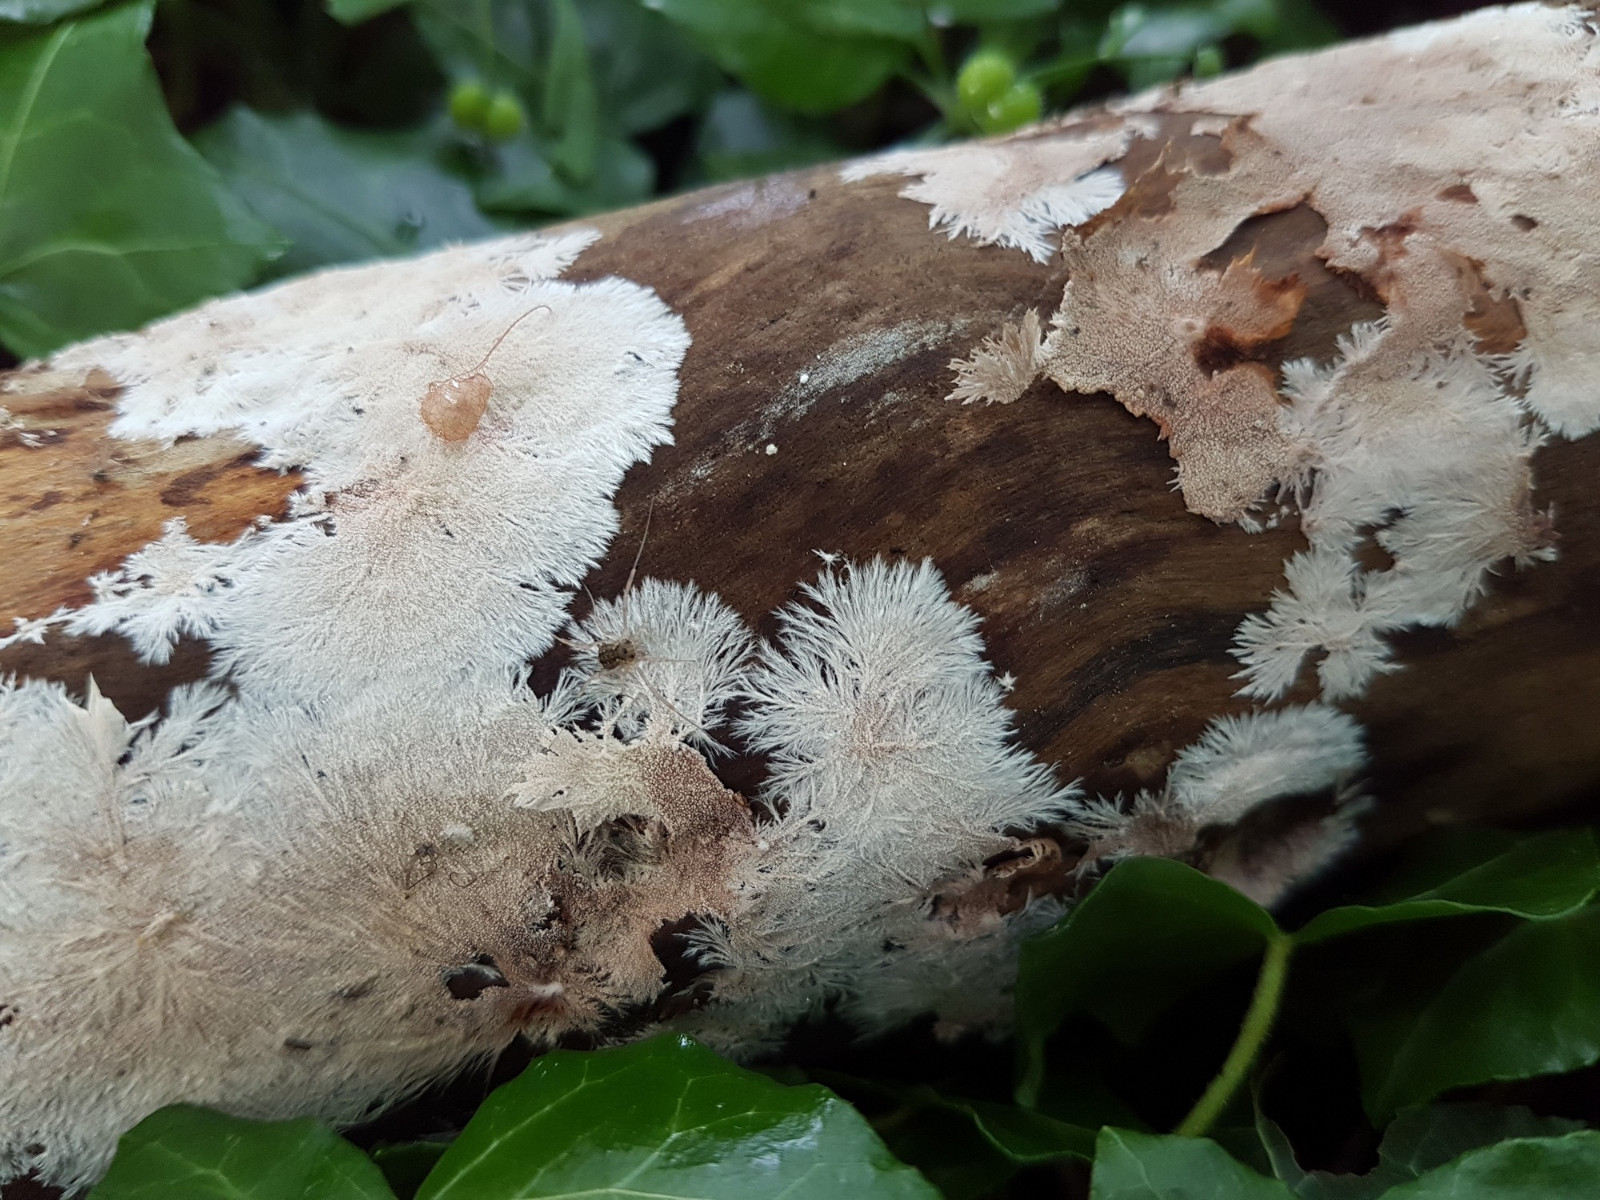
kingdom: Fungi
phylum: Basidiomycota
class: Agaricomycetes
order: Polyporales
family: Steccherinaceae
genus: Steccherinum
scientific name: Steccherinum fimbriatum
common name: trådet skønpig
